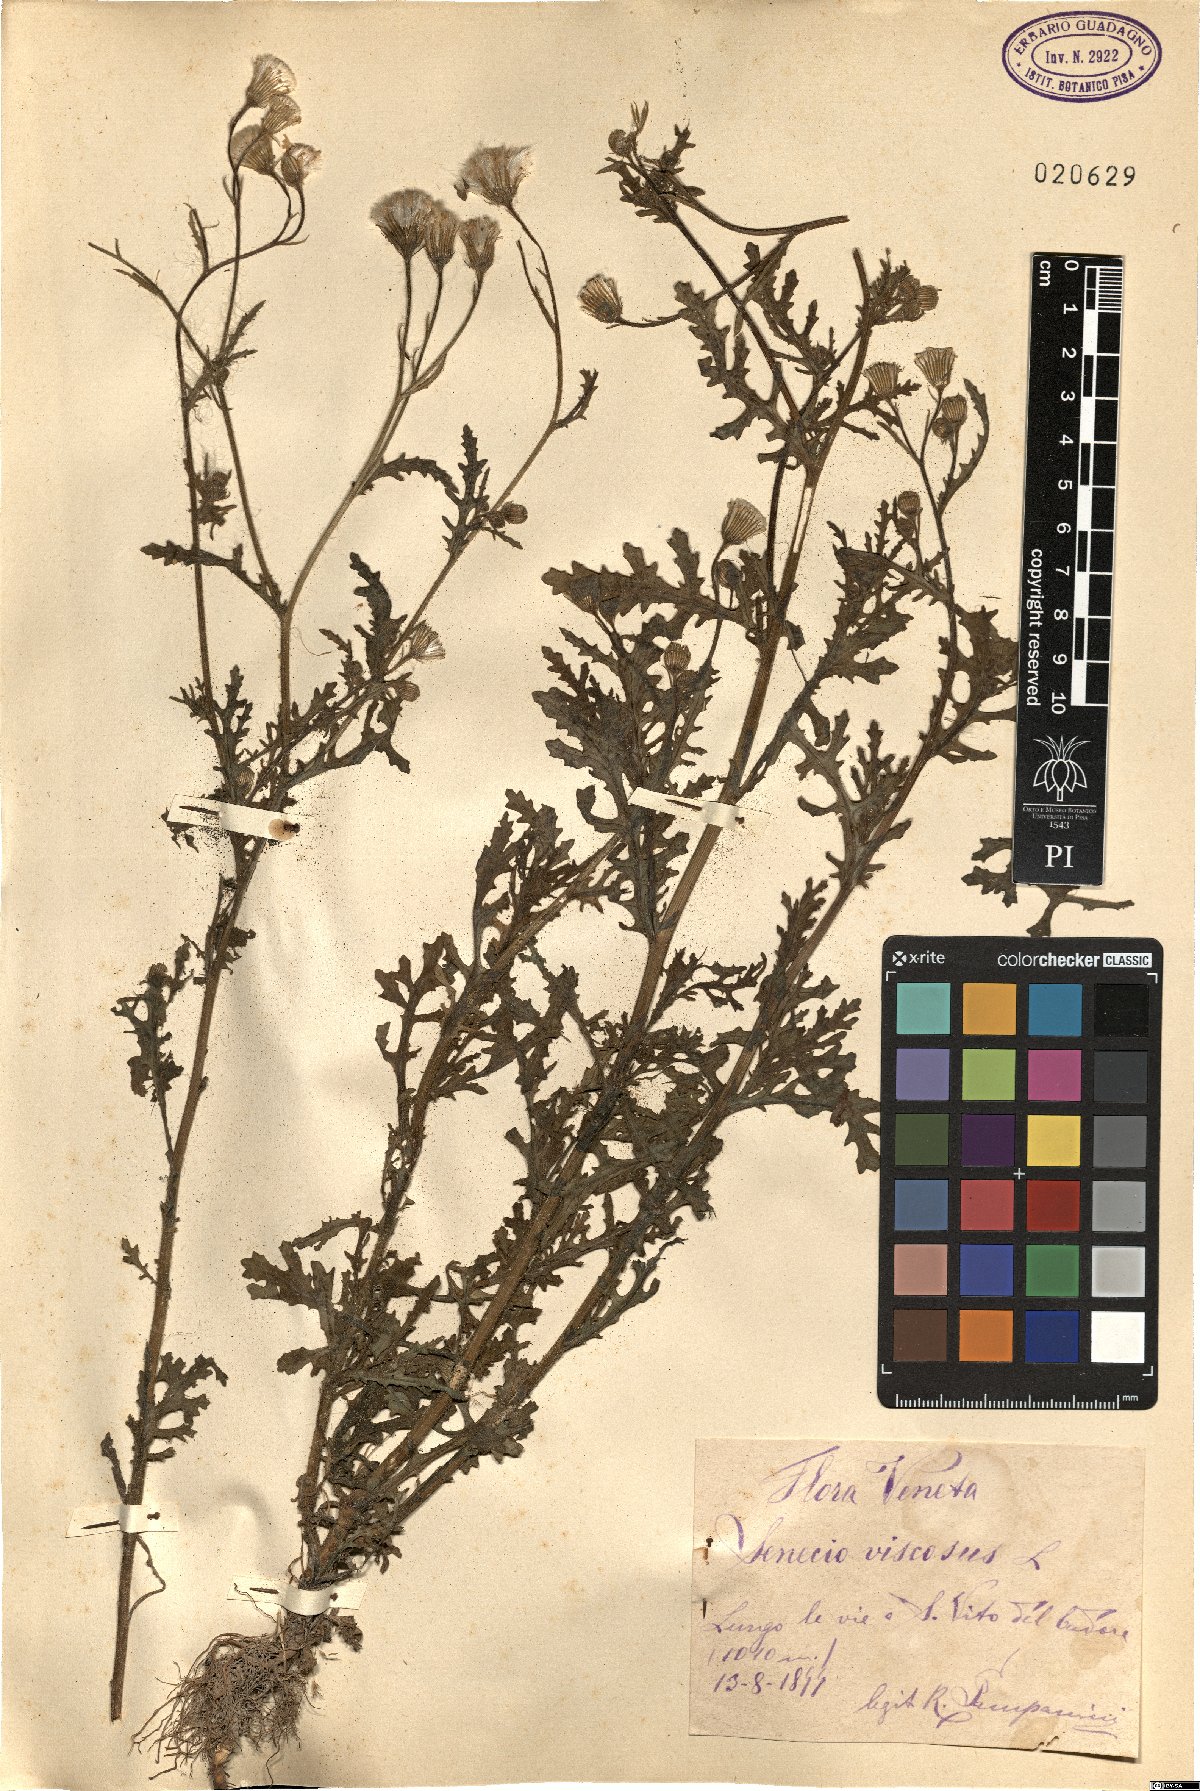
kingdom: Plantae
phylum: Tracheophyta
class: Magnoliopsida
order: Asterales
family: Asteraceae
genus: Senecio
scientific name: Senecio viscosus
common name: Sticky groundsel
